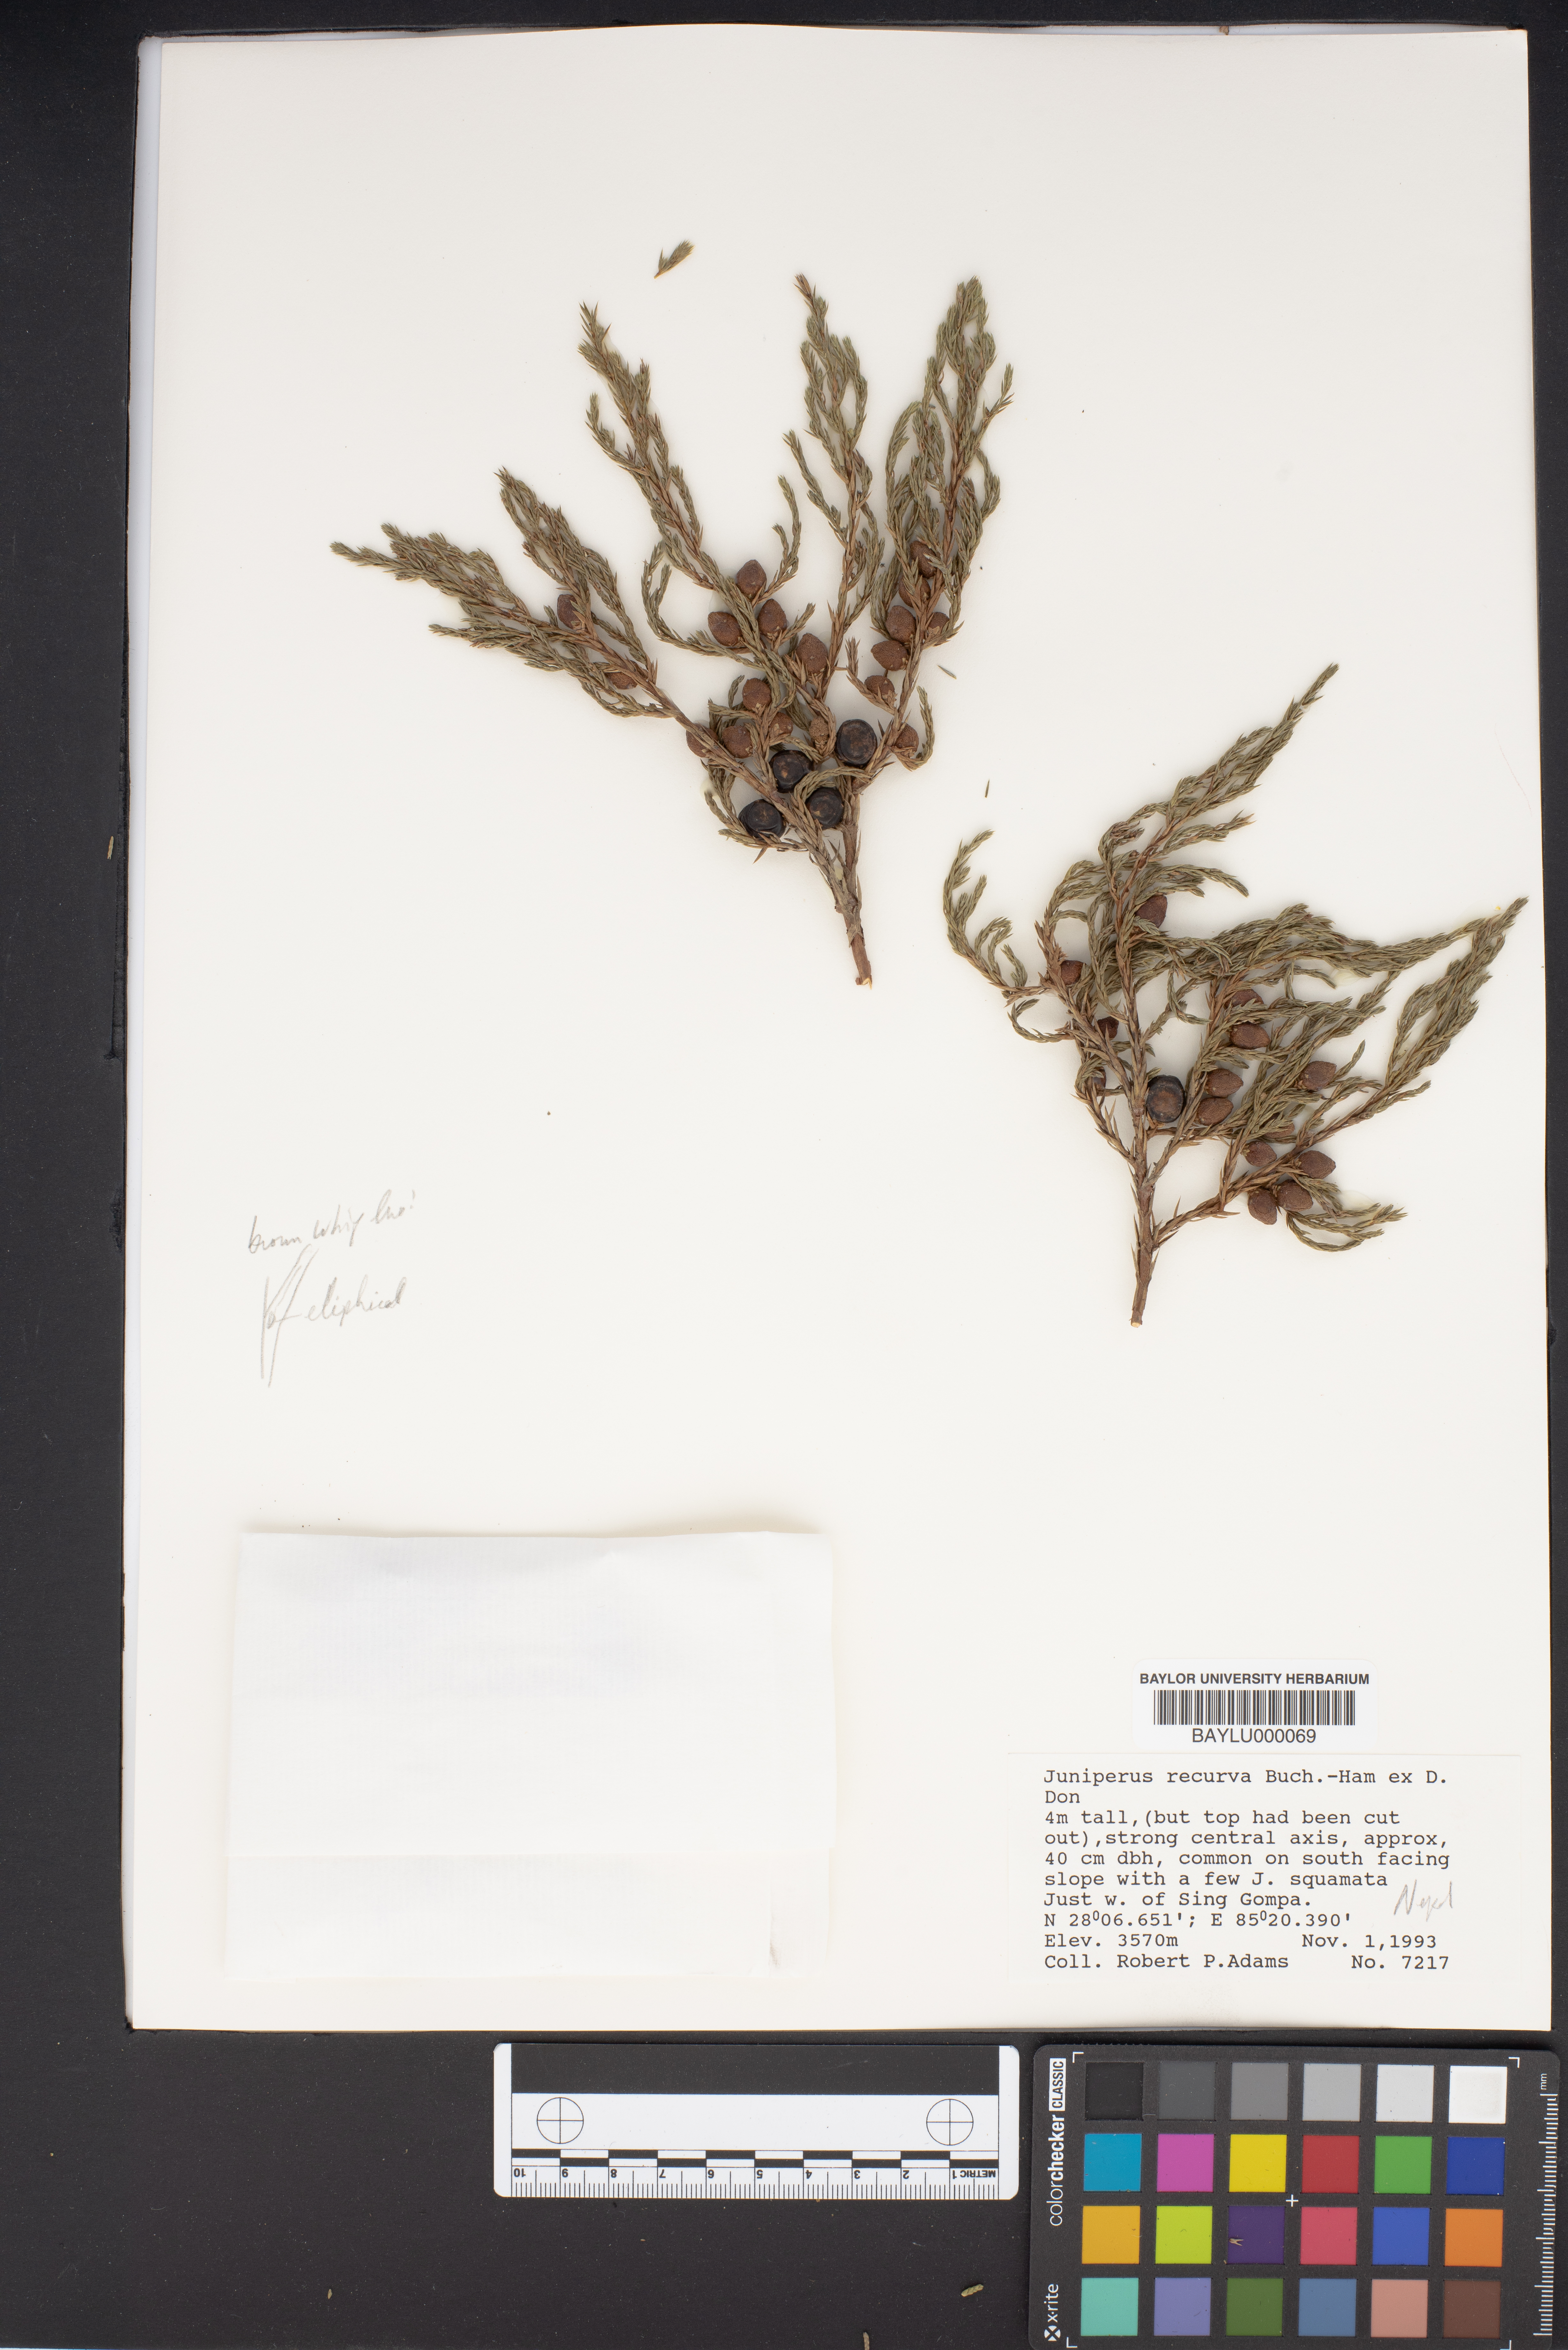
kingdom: Plantae
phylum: Tracheophyta
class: Pinopsida
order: Pinales
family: Cupressaceae
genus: Juniperus
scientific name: Juniperus recurva
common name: Drooping juniper
